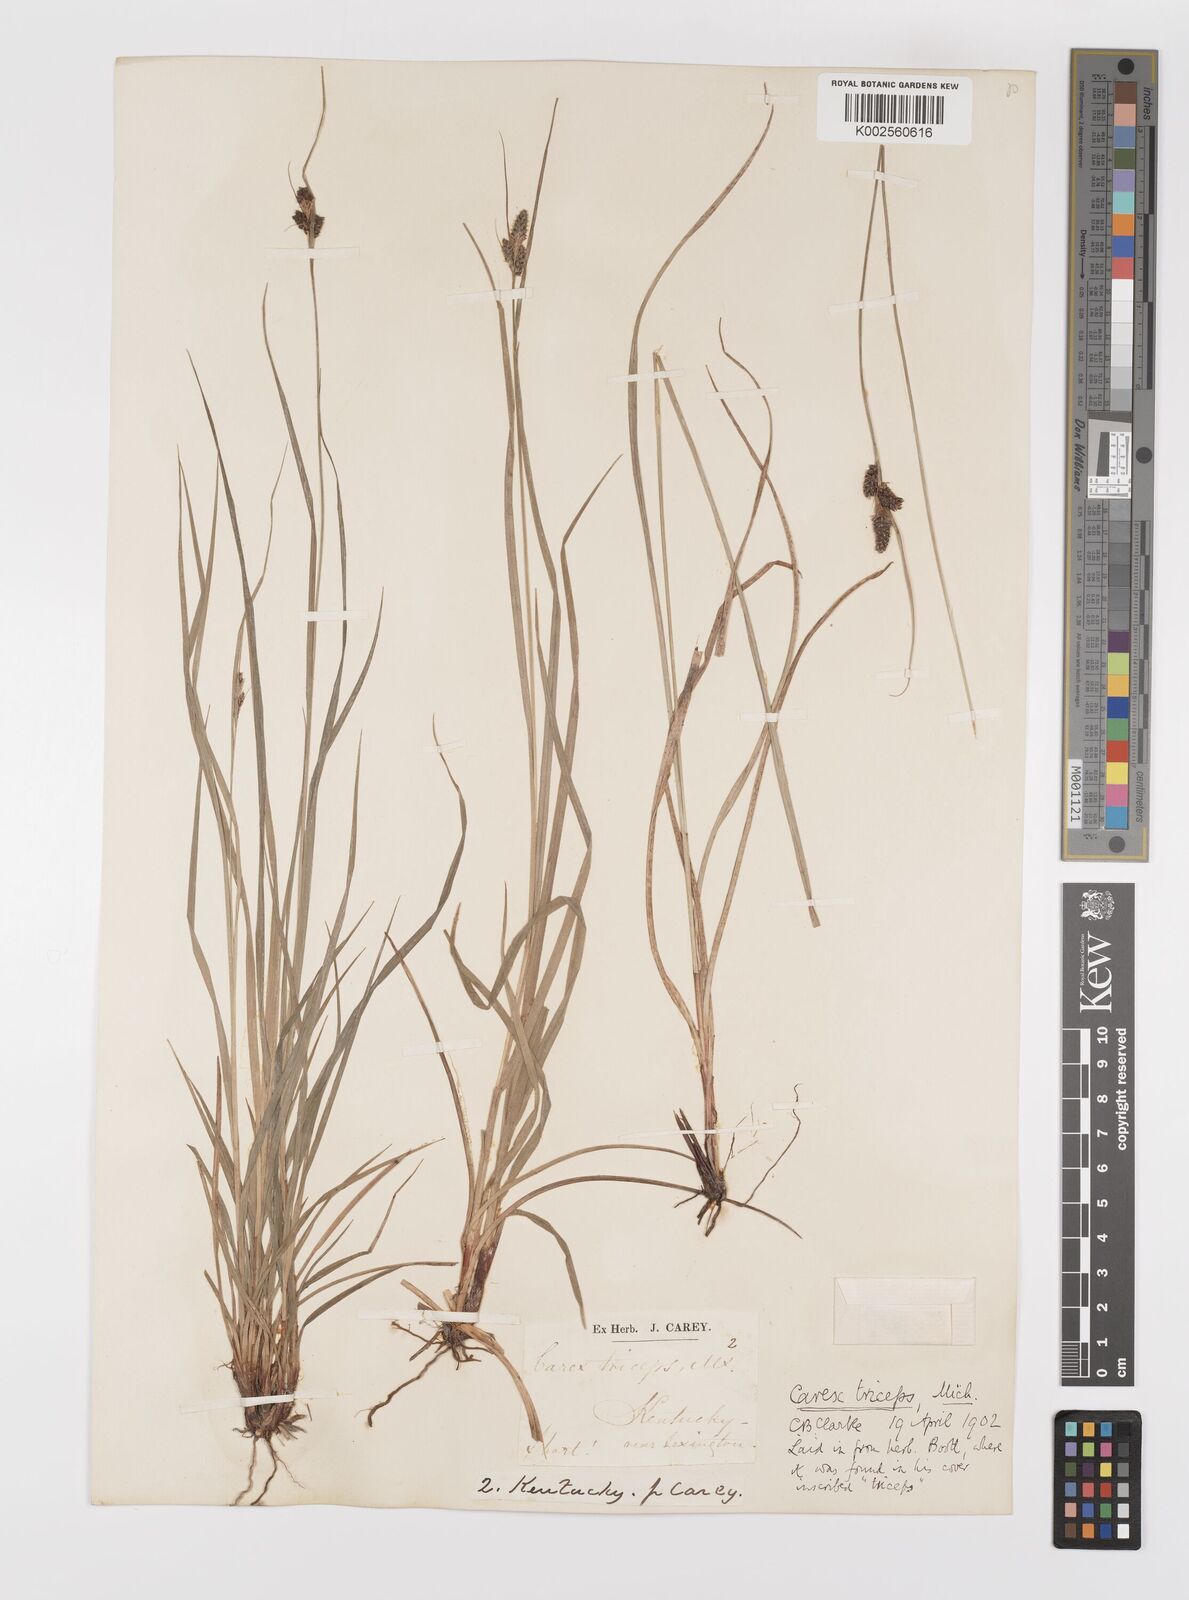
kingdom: Plantae
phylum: Tracheophyta
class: Liliopsida
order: Poales
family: Cyperaceae
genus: Carex
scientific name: Carex complanata
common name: Hirsute sedge
